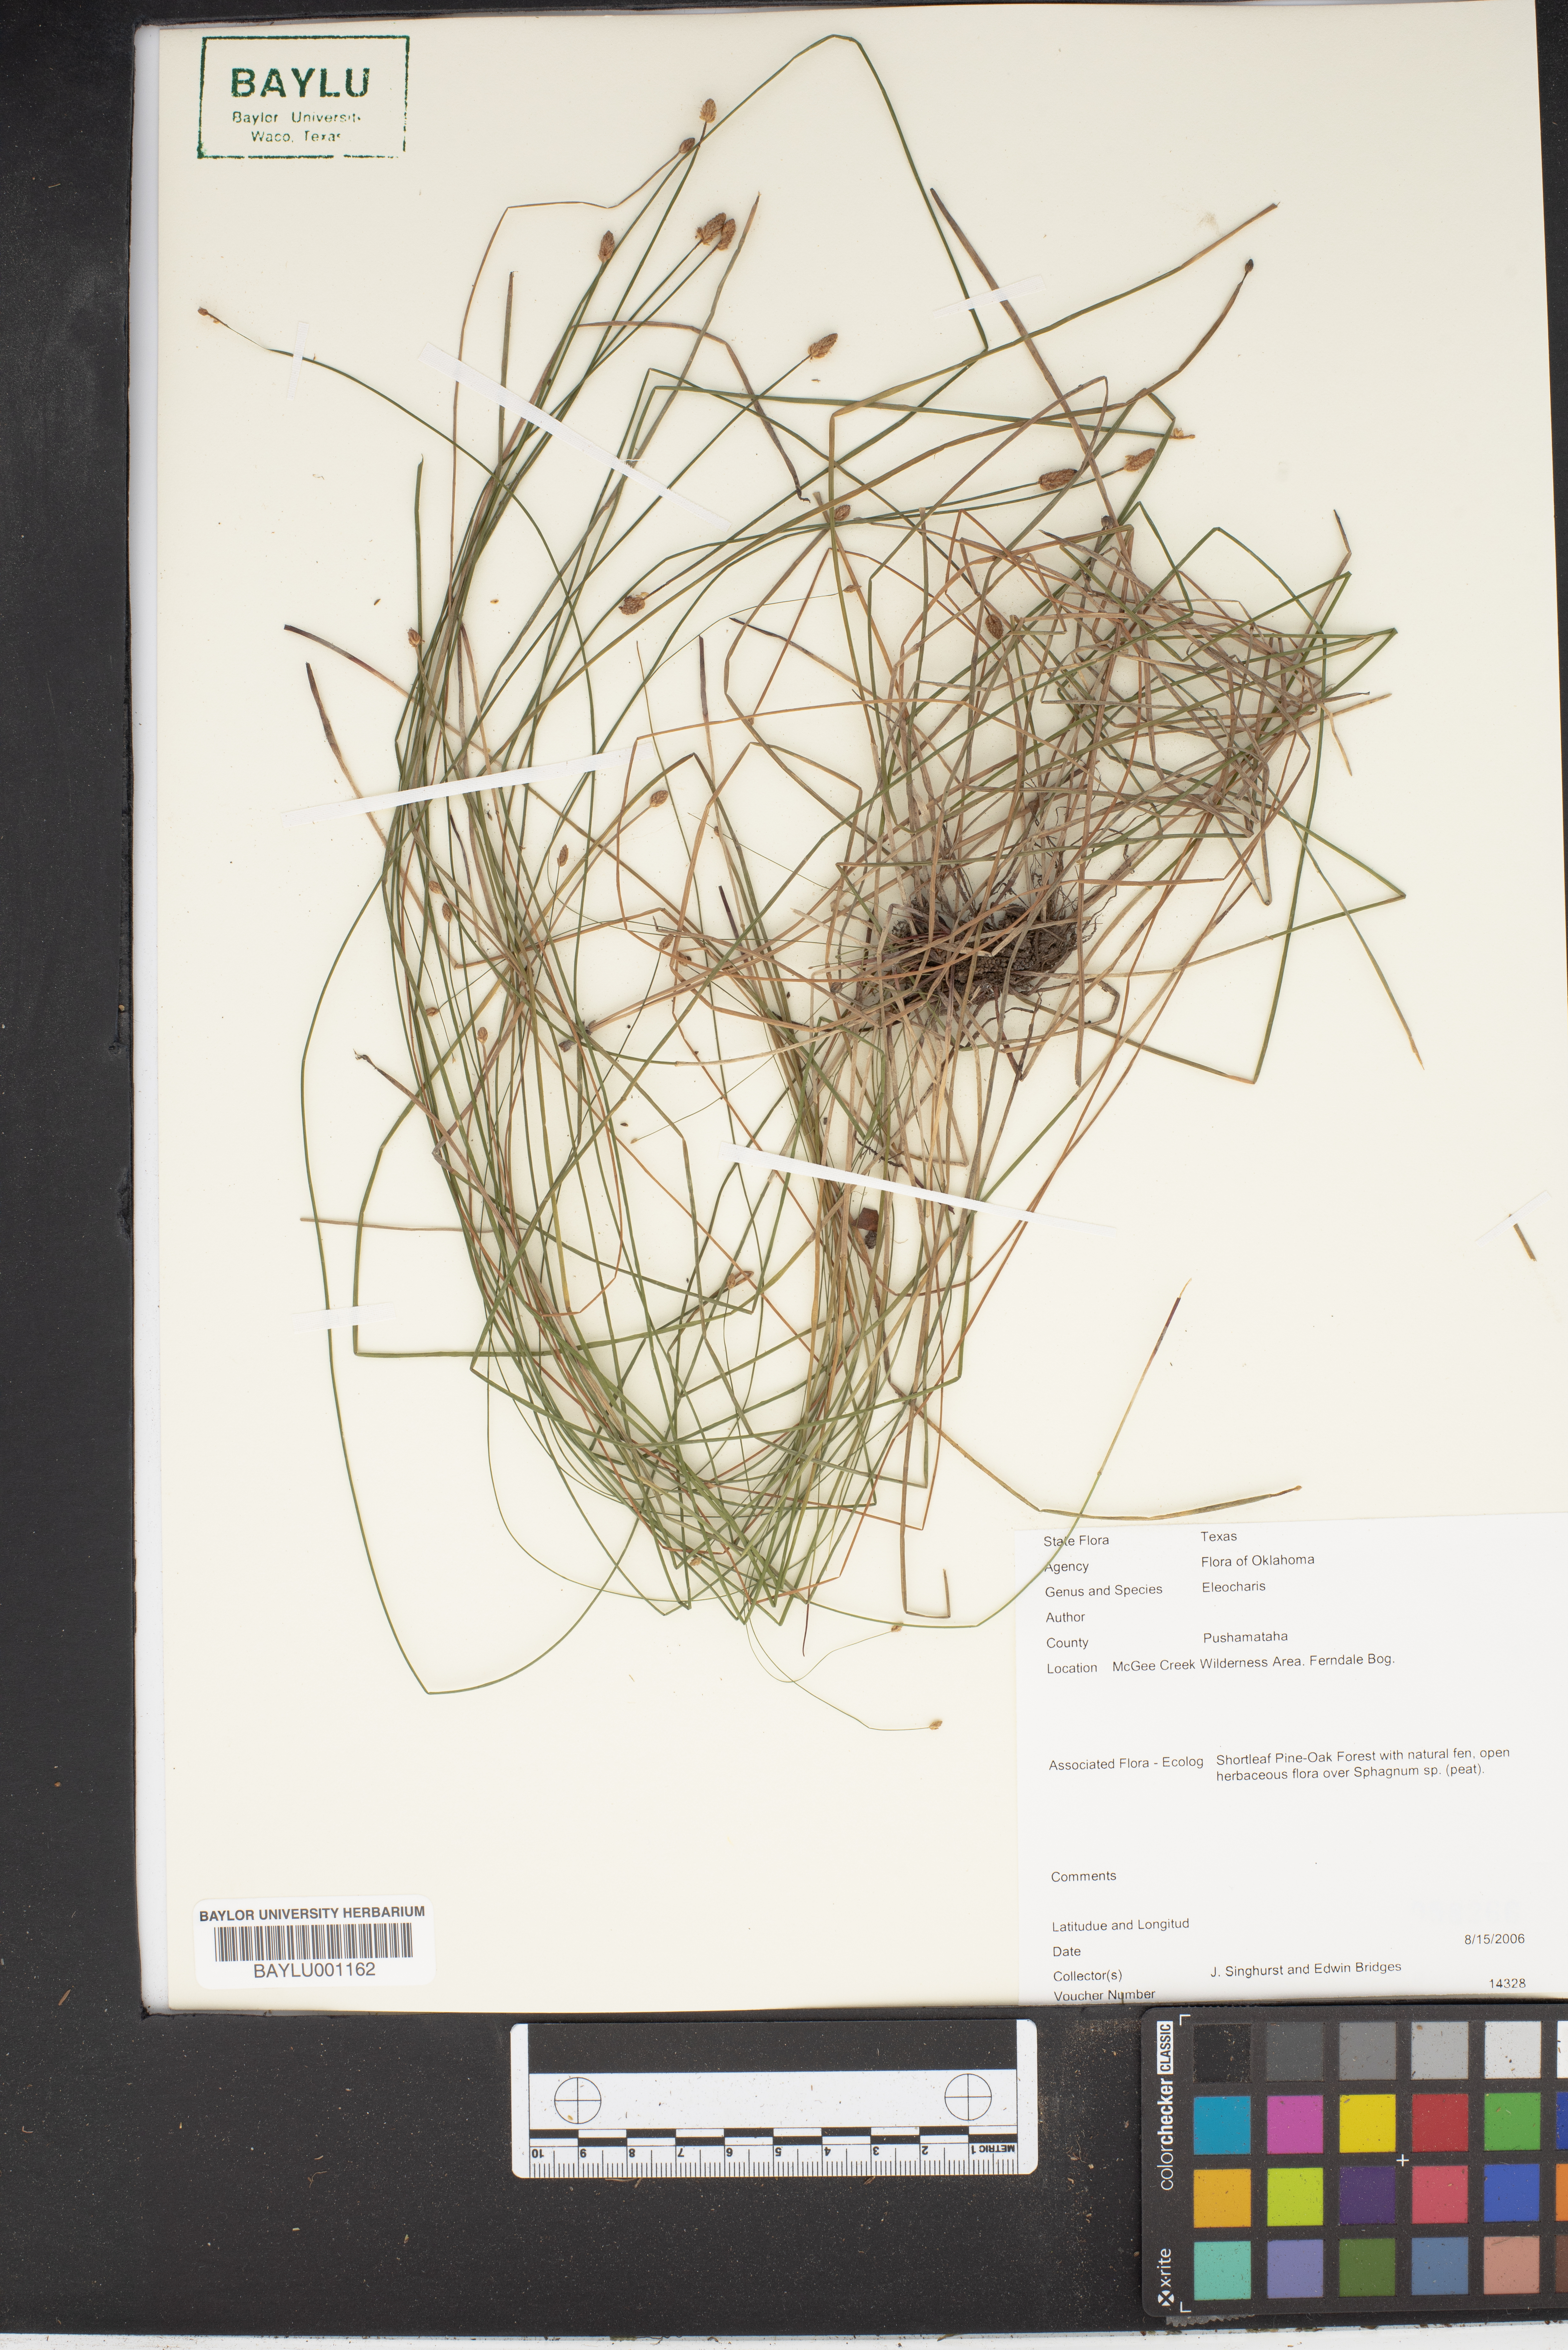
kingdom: Plantae
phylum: Tracheophyta
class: Liliopsida
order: Poales
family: Cyperaceae
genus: Eleocharis
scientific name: Eleocharis
